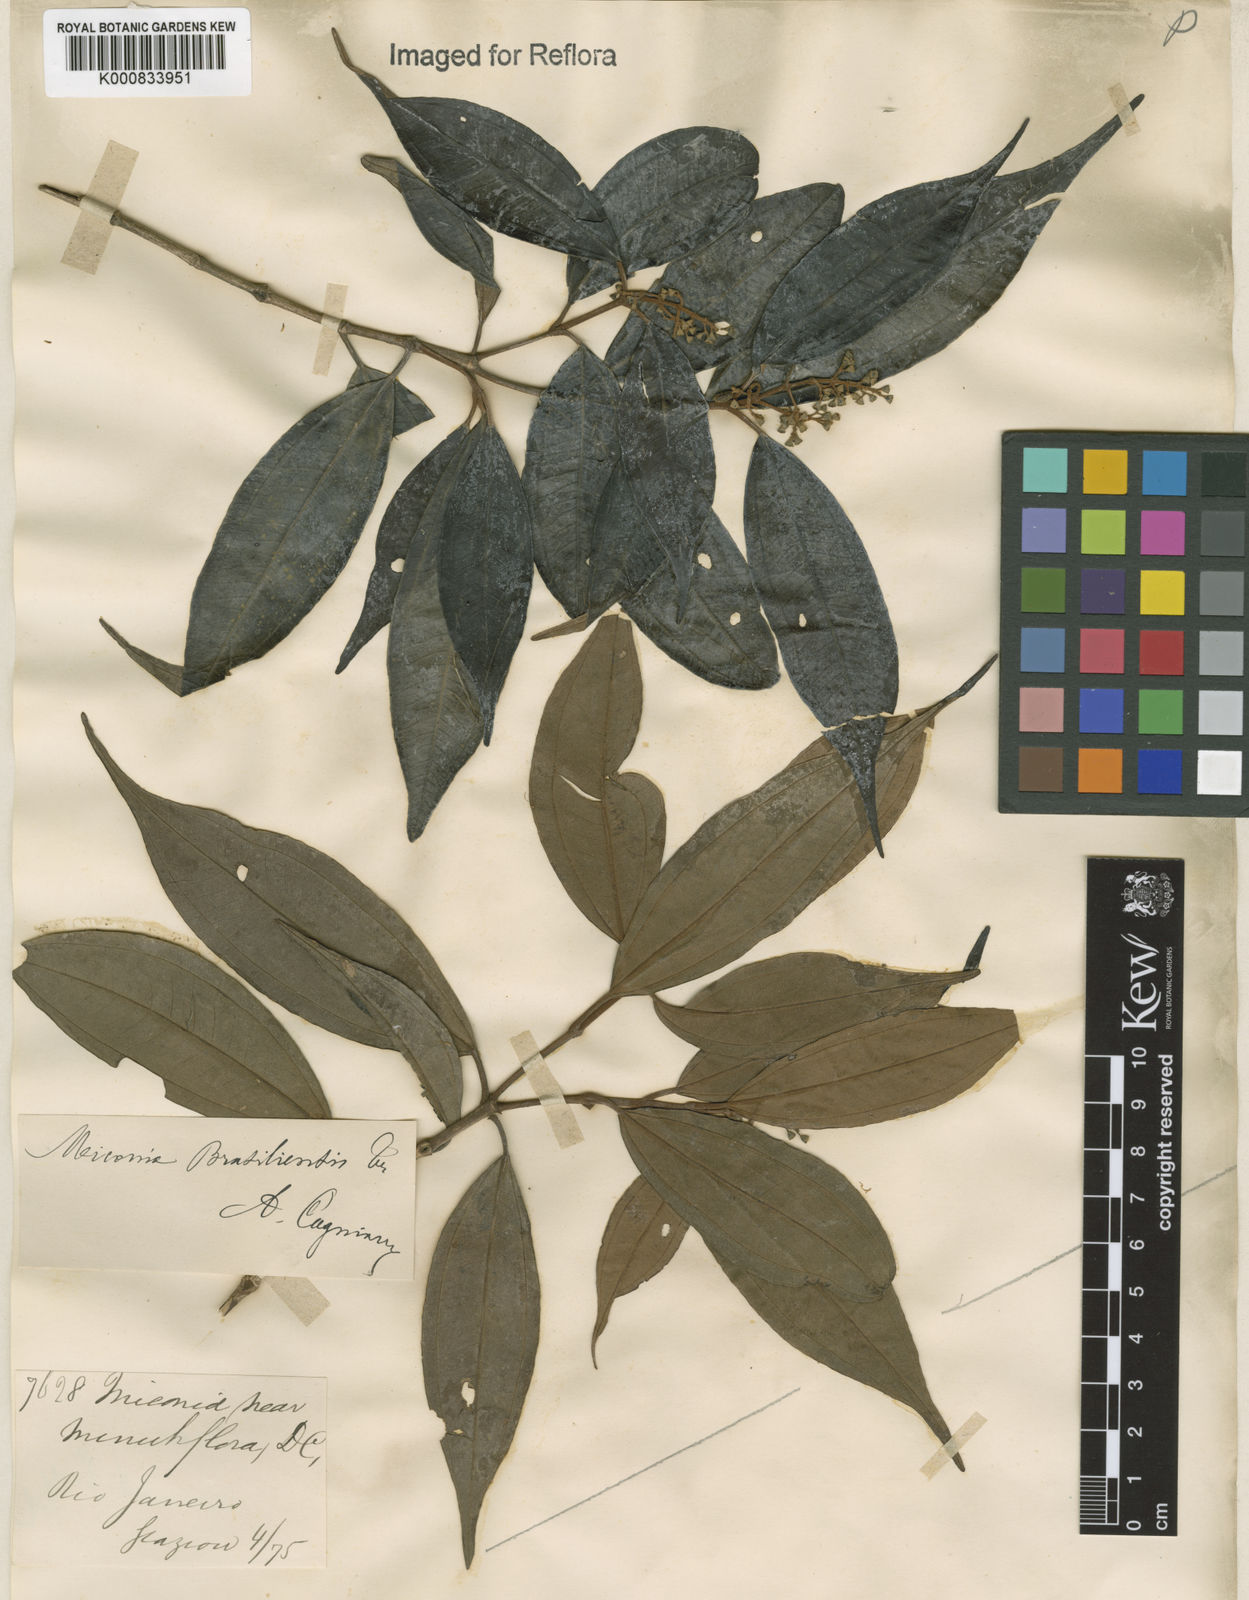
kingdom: Plantae
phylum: Tracheophyta
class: Magnoliopsida
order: Myrtales
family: Melastomataceae
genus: Miconia
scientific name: Miconia brasiliensis
